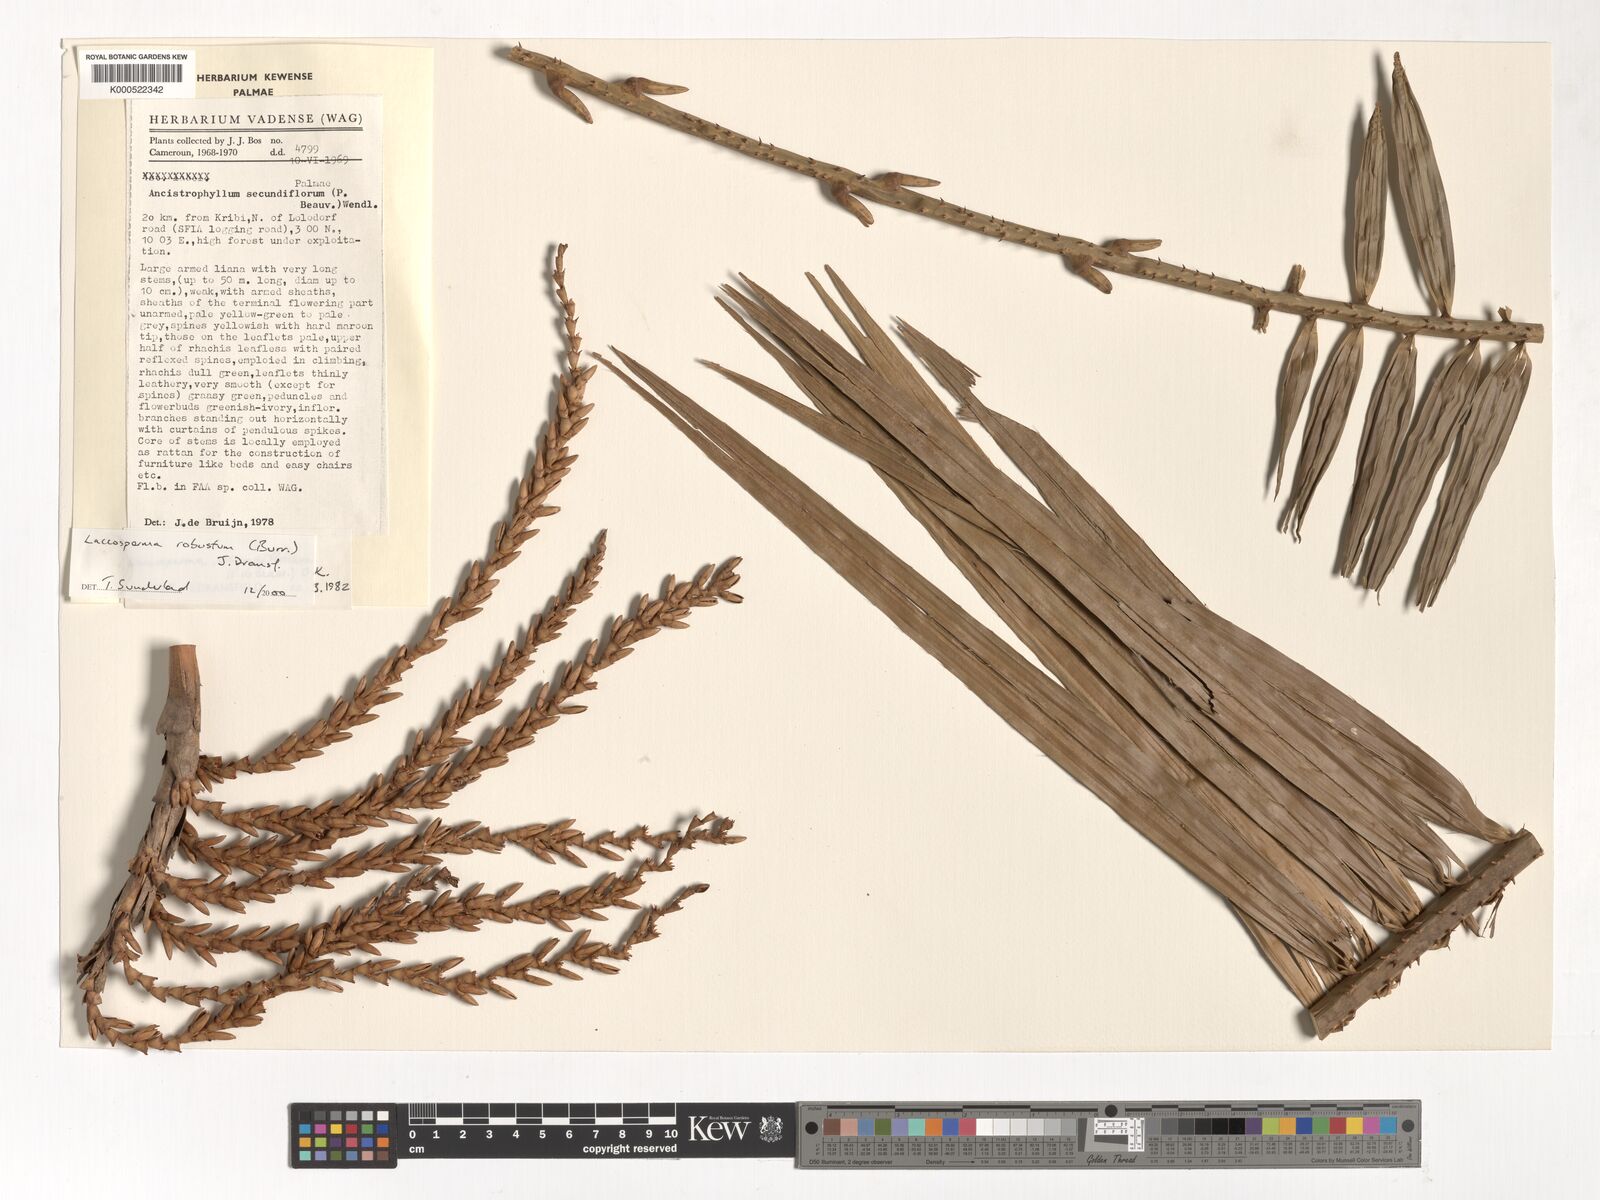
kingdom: Plantae
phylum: Tracheophyta
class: Liliopsida
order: Arecales
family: Arecaceae
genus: Laccosperma
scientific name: Laccosperma robustum
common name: Rattan
